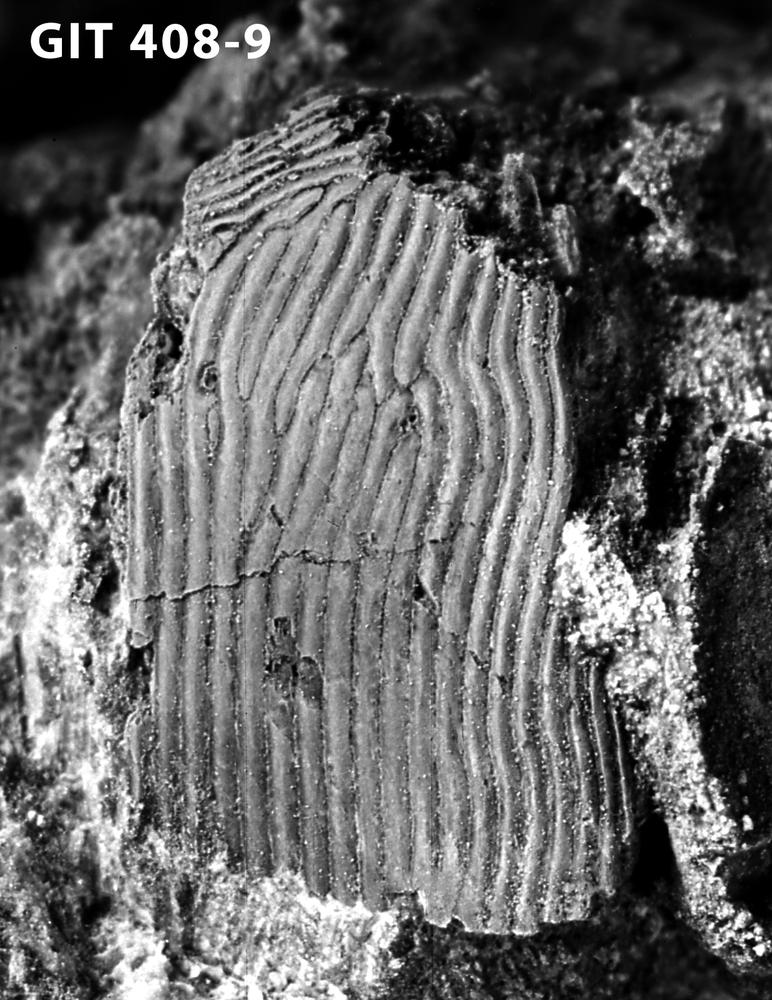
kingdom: Animalia
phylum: Chordata
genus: Archegonaspis
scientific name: Archegonaspis
